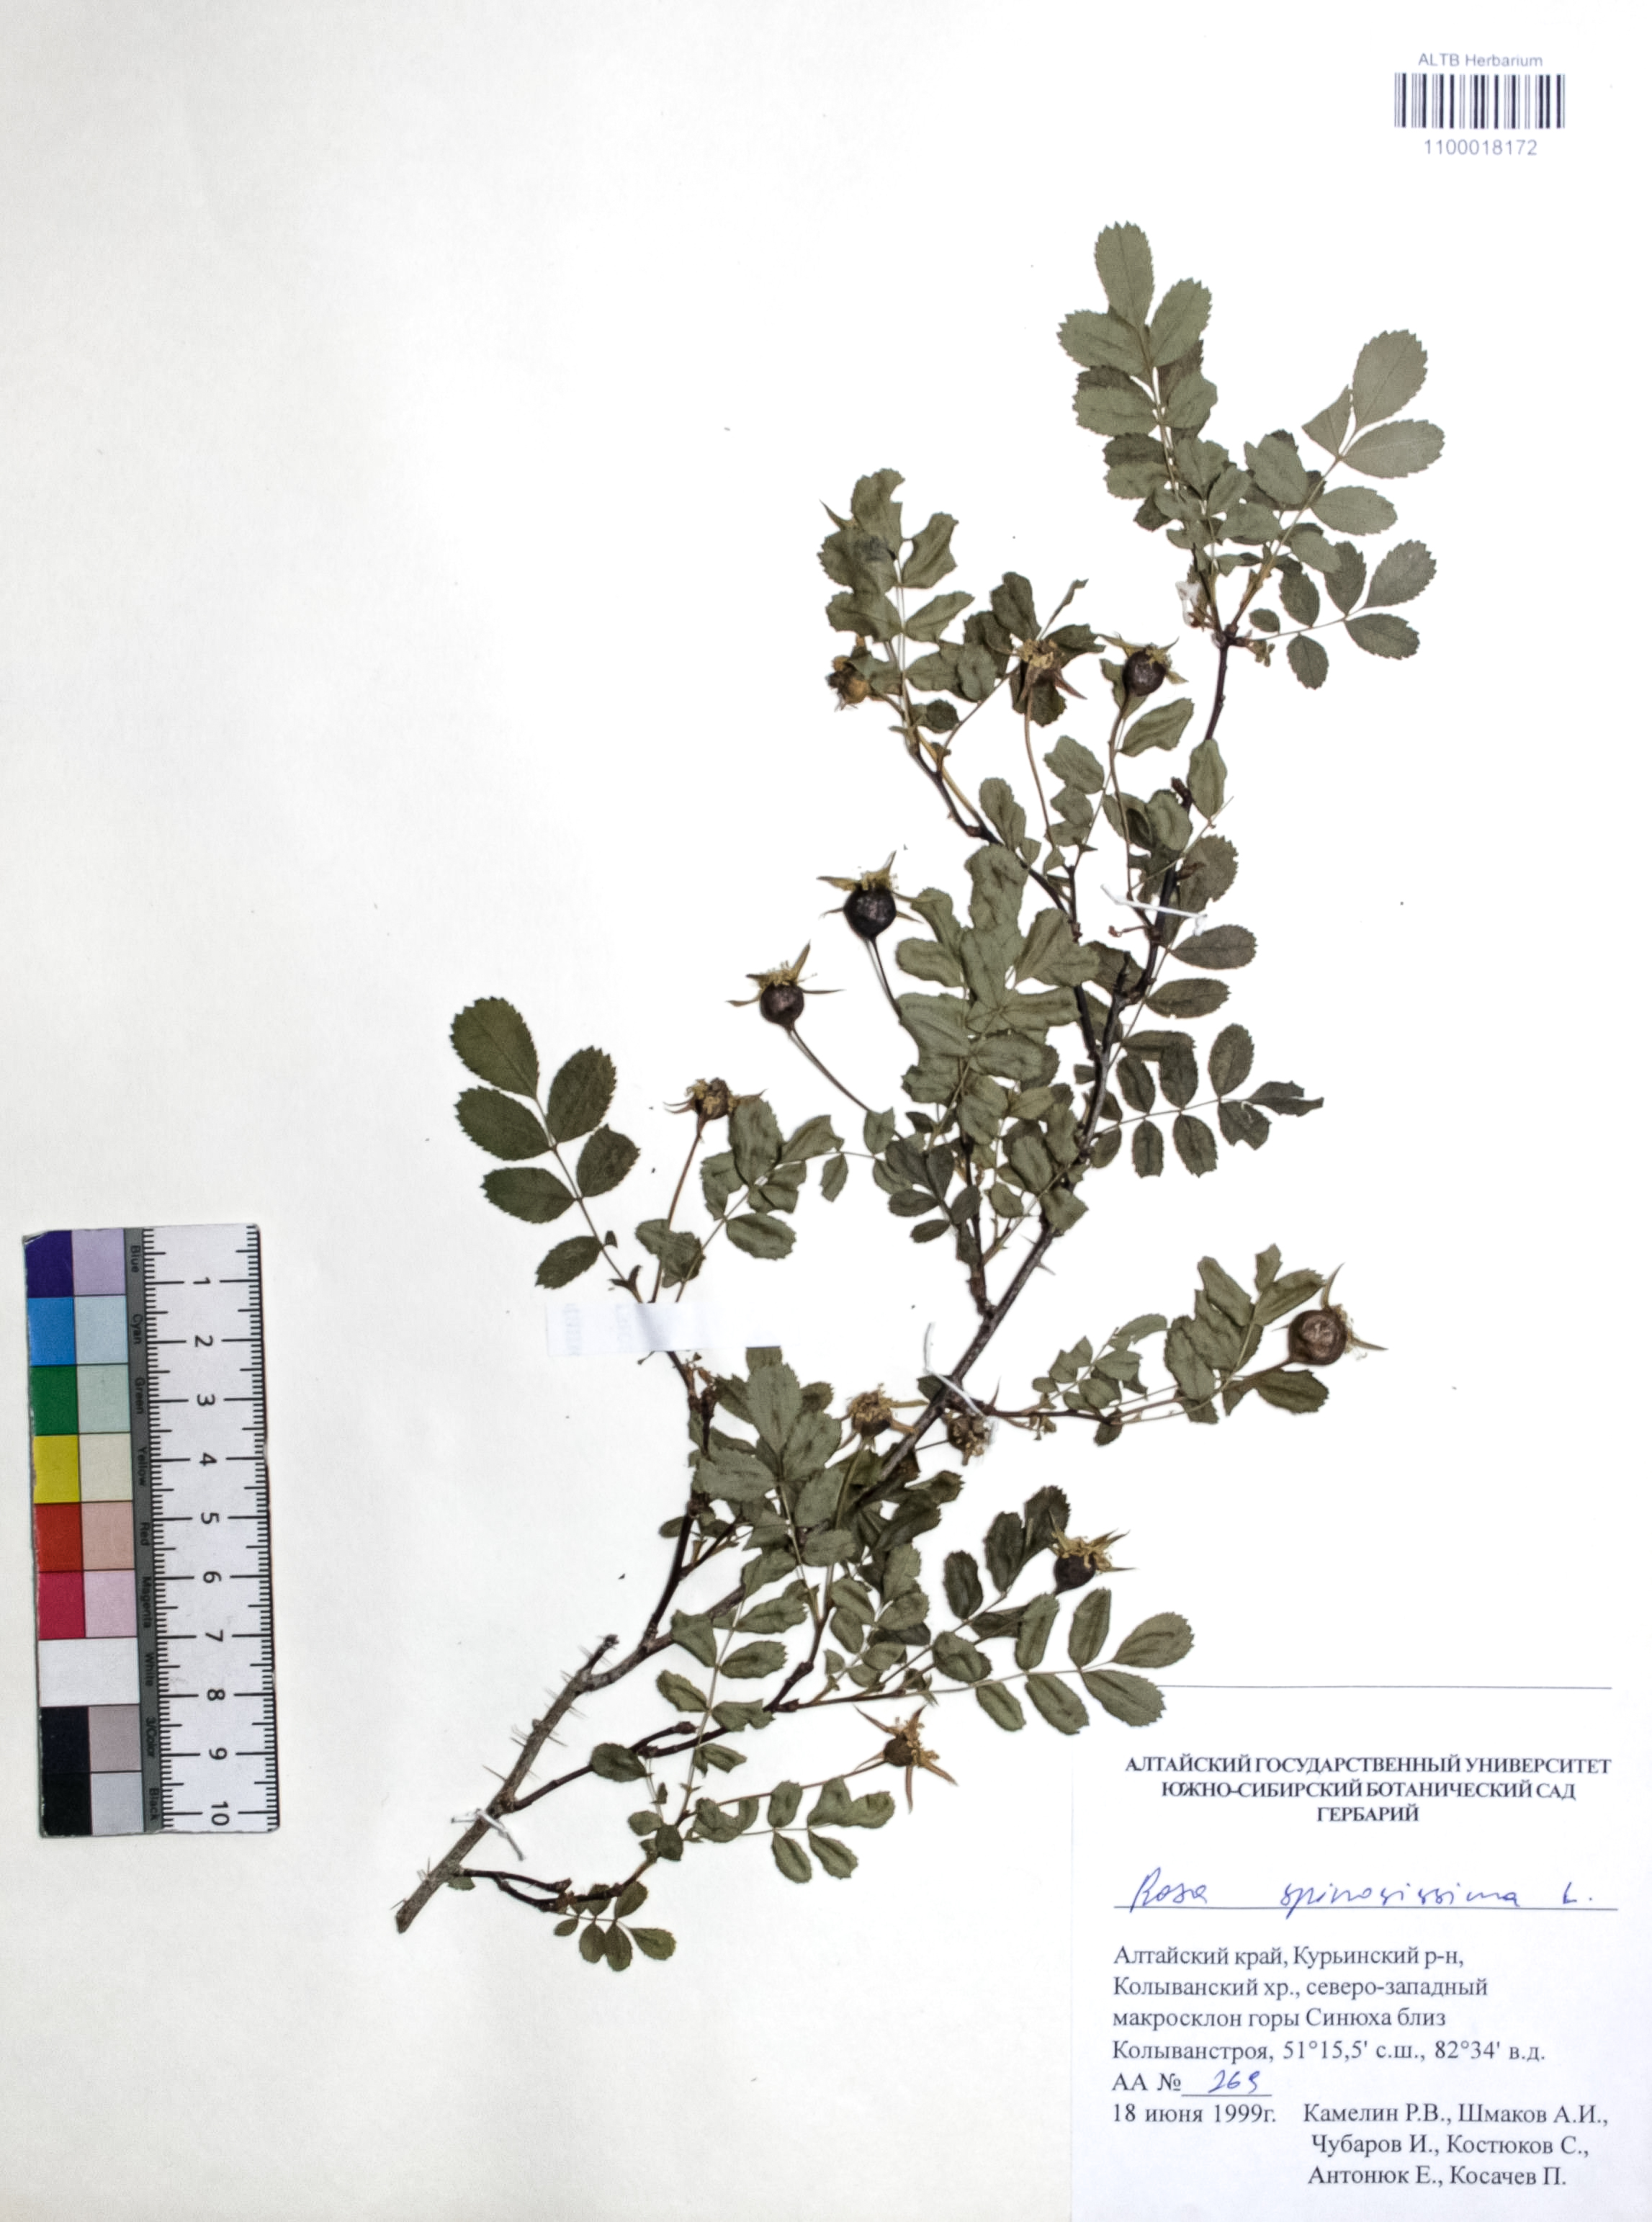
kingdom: Plantae
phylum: Tracheophyta
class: Magnoliopsida
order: Rosales
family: Rosaceae
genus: Rosa
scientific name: Rosa spinosissima
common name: Burnet rose
